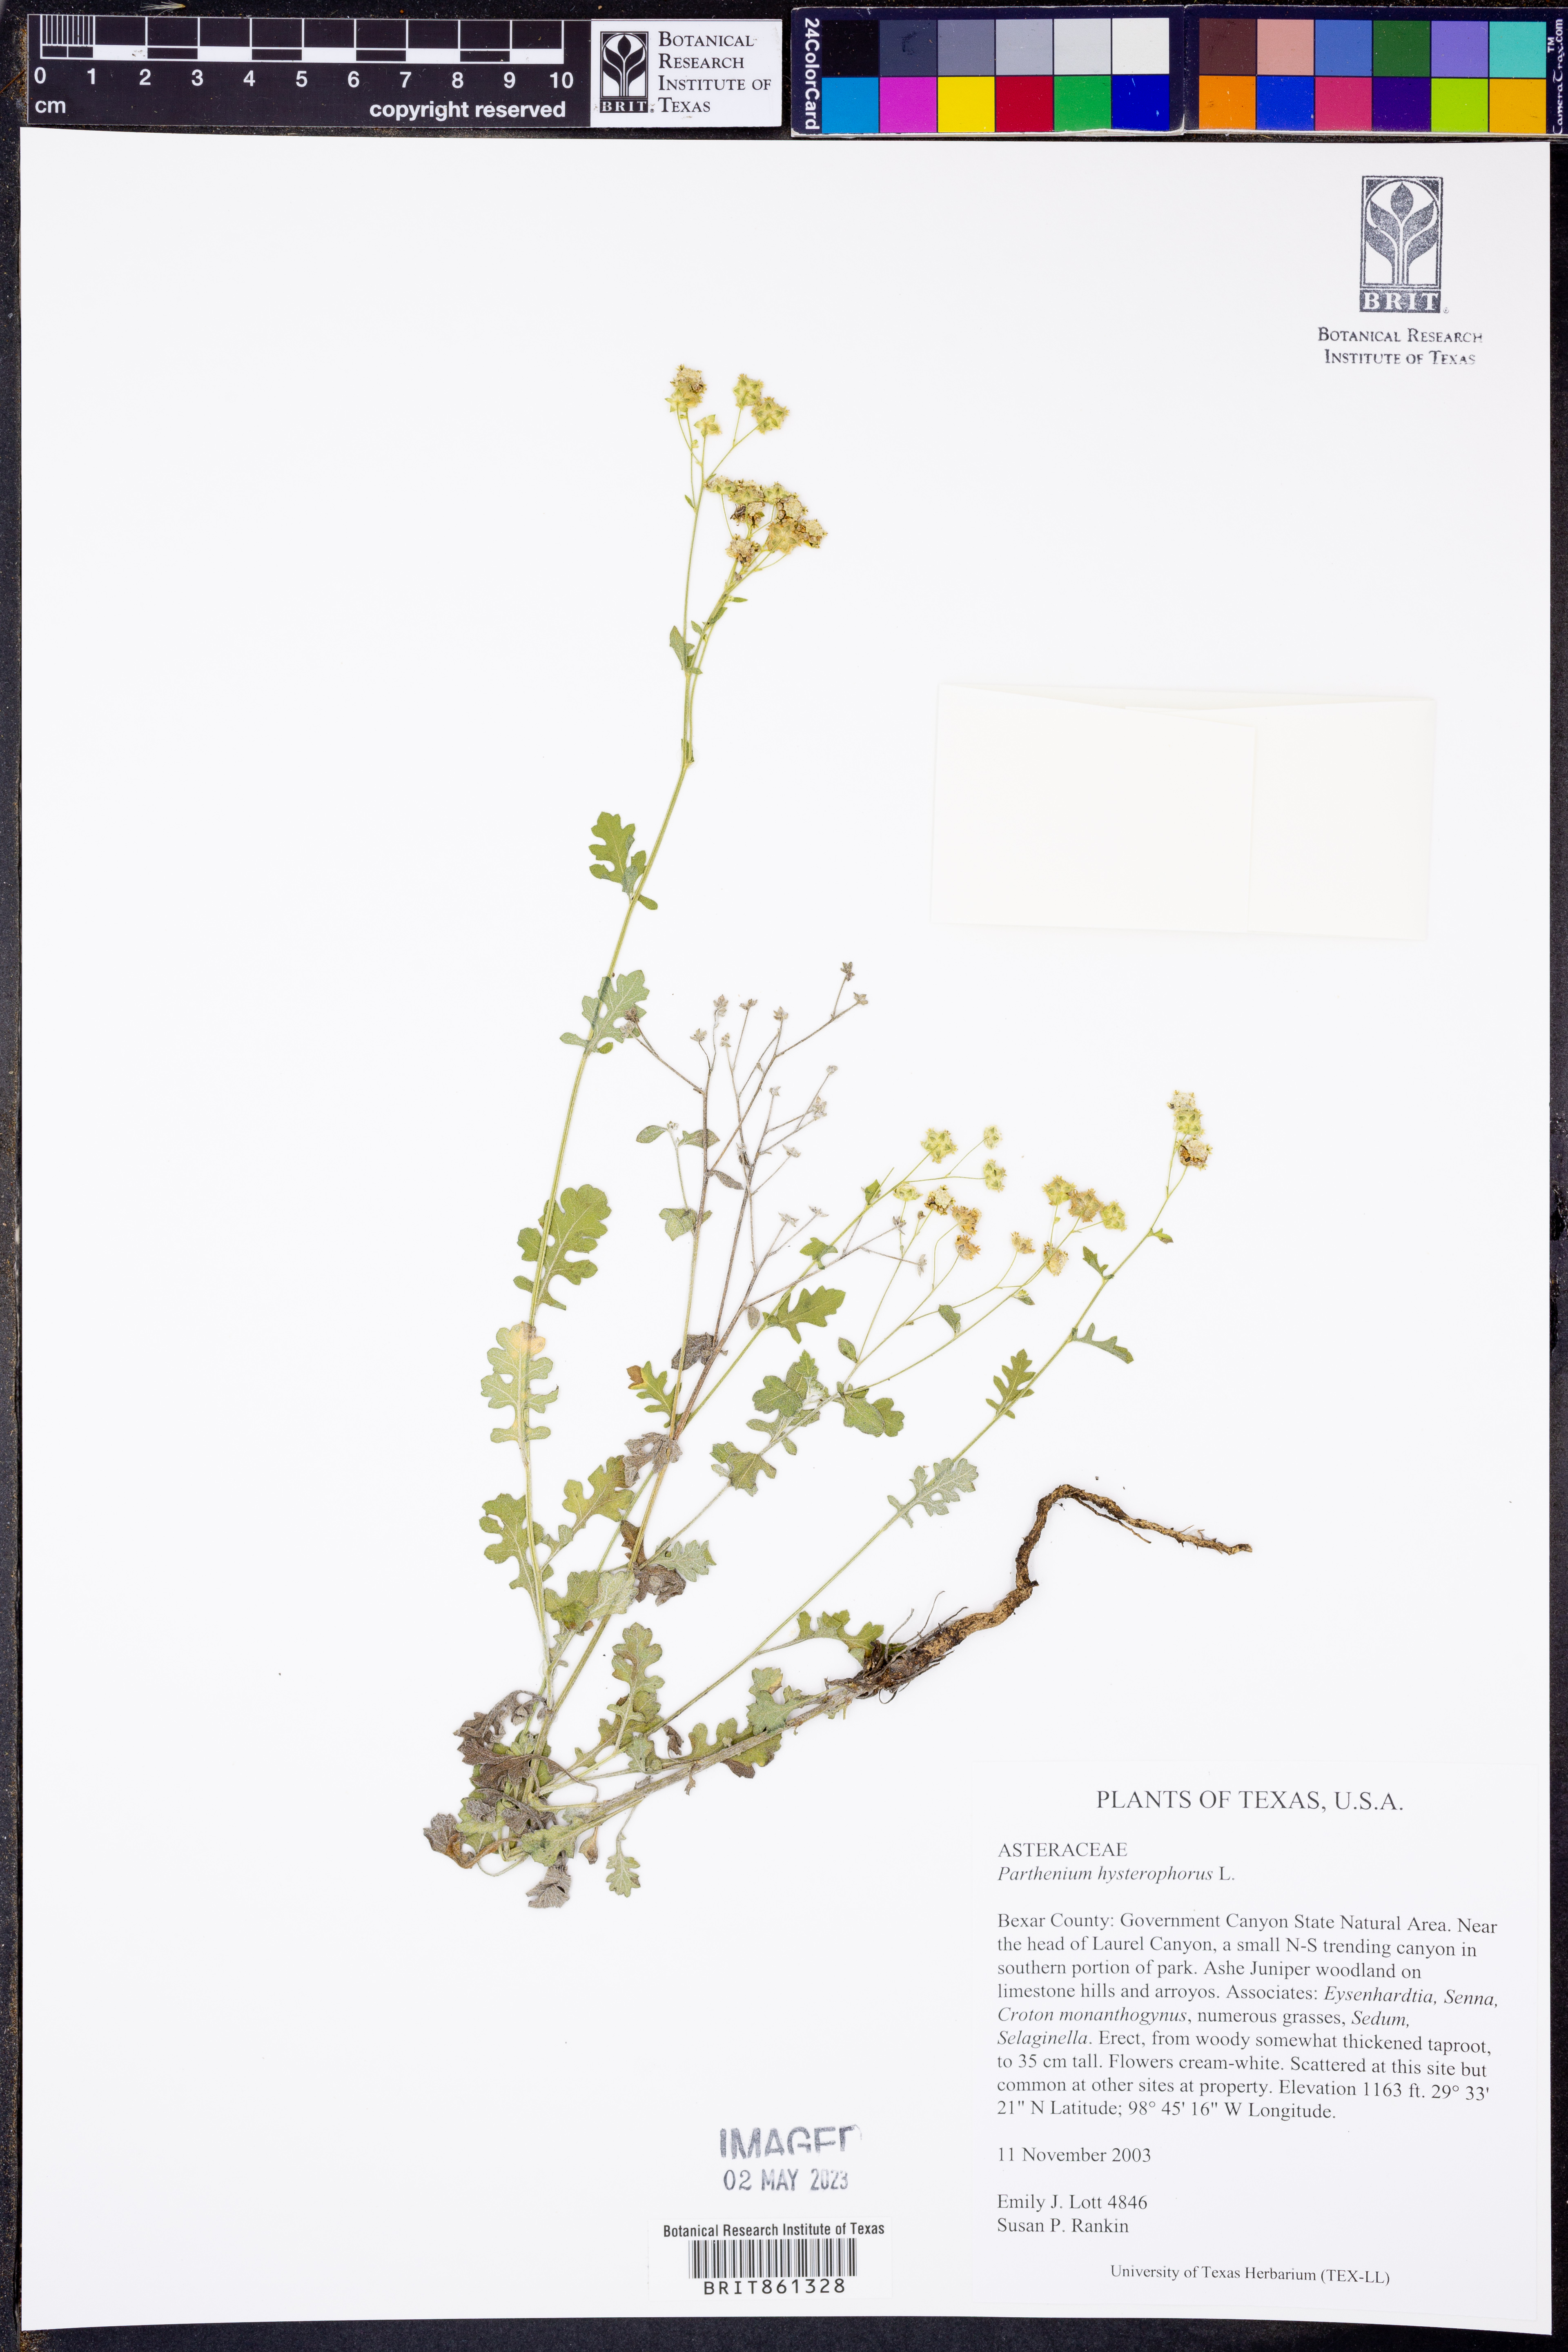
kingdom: Plantae
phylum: Tracheophyta
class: Magnoliopsida
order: Asterales
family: Asteraceae
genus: Parthenium
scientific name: Parthenium hysterophorus
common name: Santa maria feverfew
